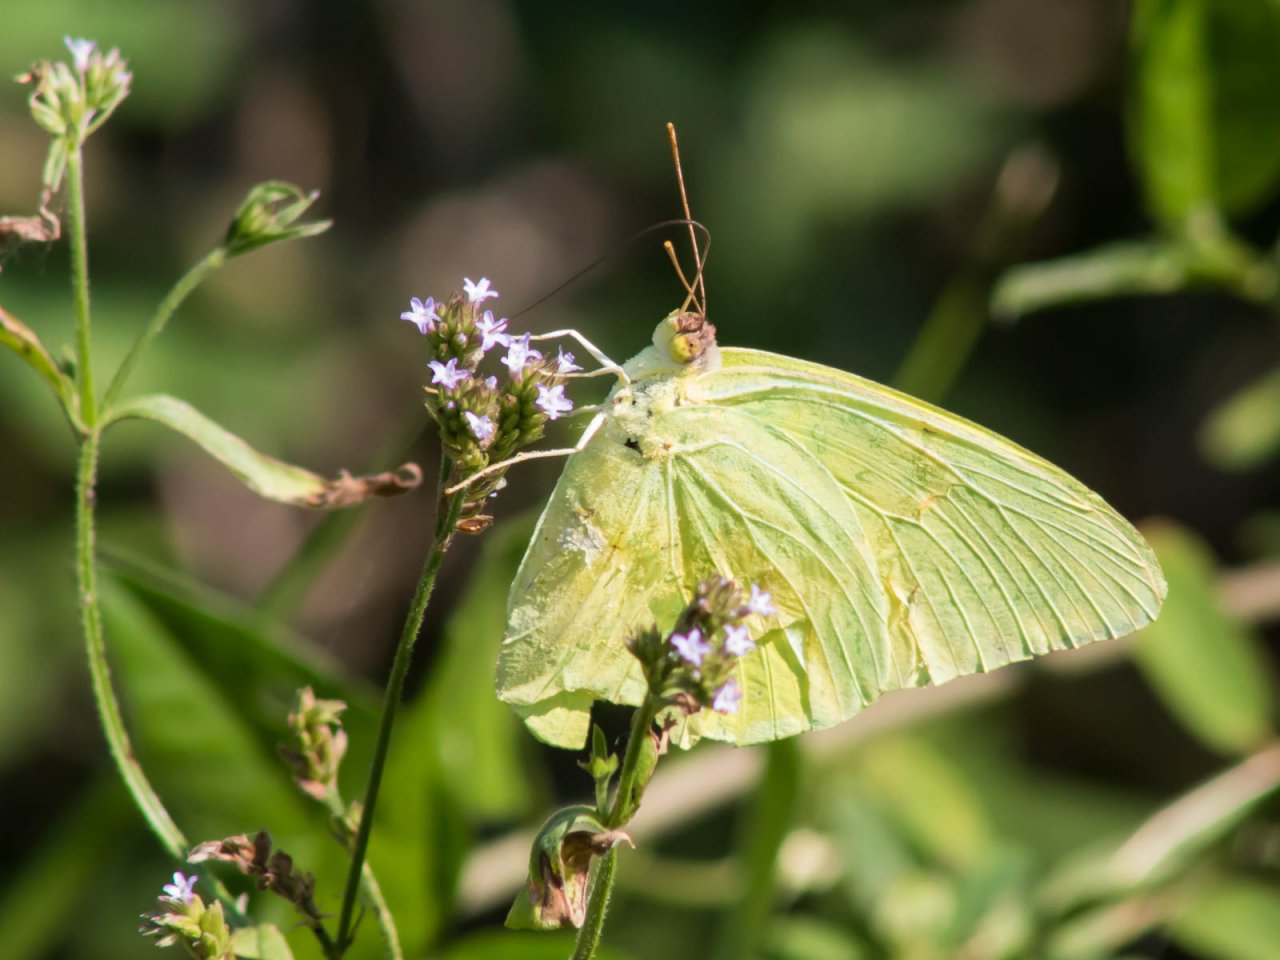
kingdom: Animalia
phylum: Arthropoda
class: Insecta
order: Lepidoptera
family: Pieridae
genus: Phoebis
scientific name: Phoebis sennae
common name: Cloudless Sulphur
